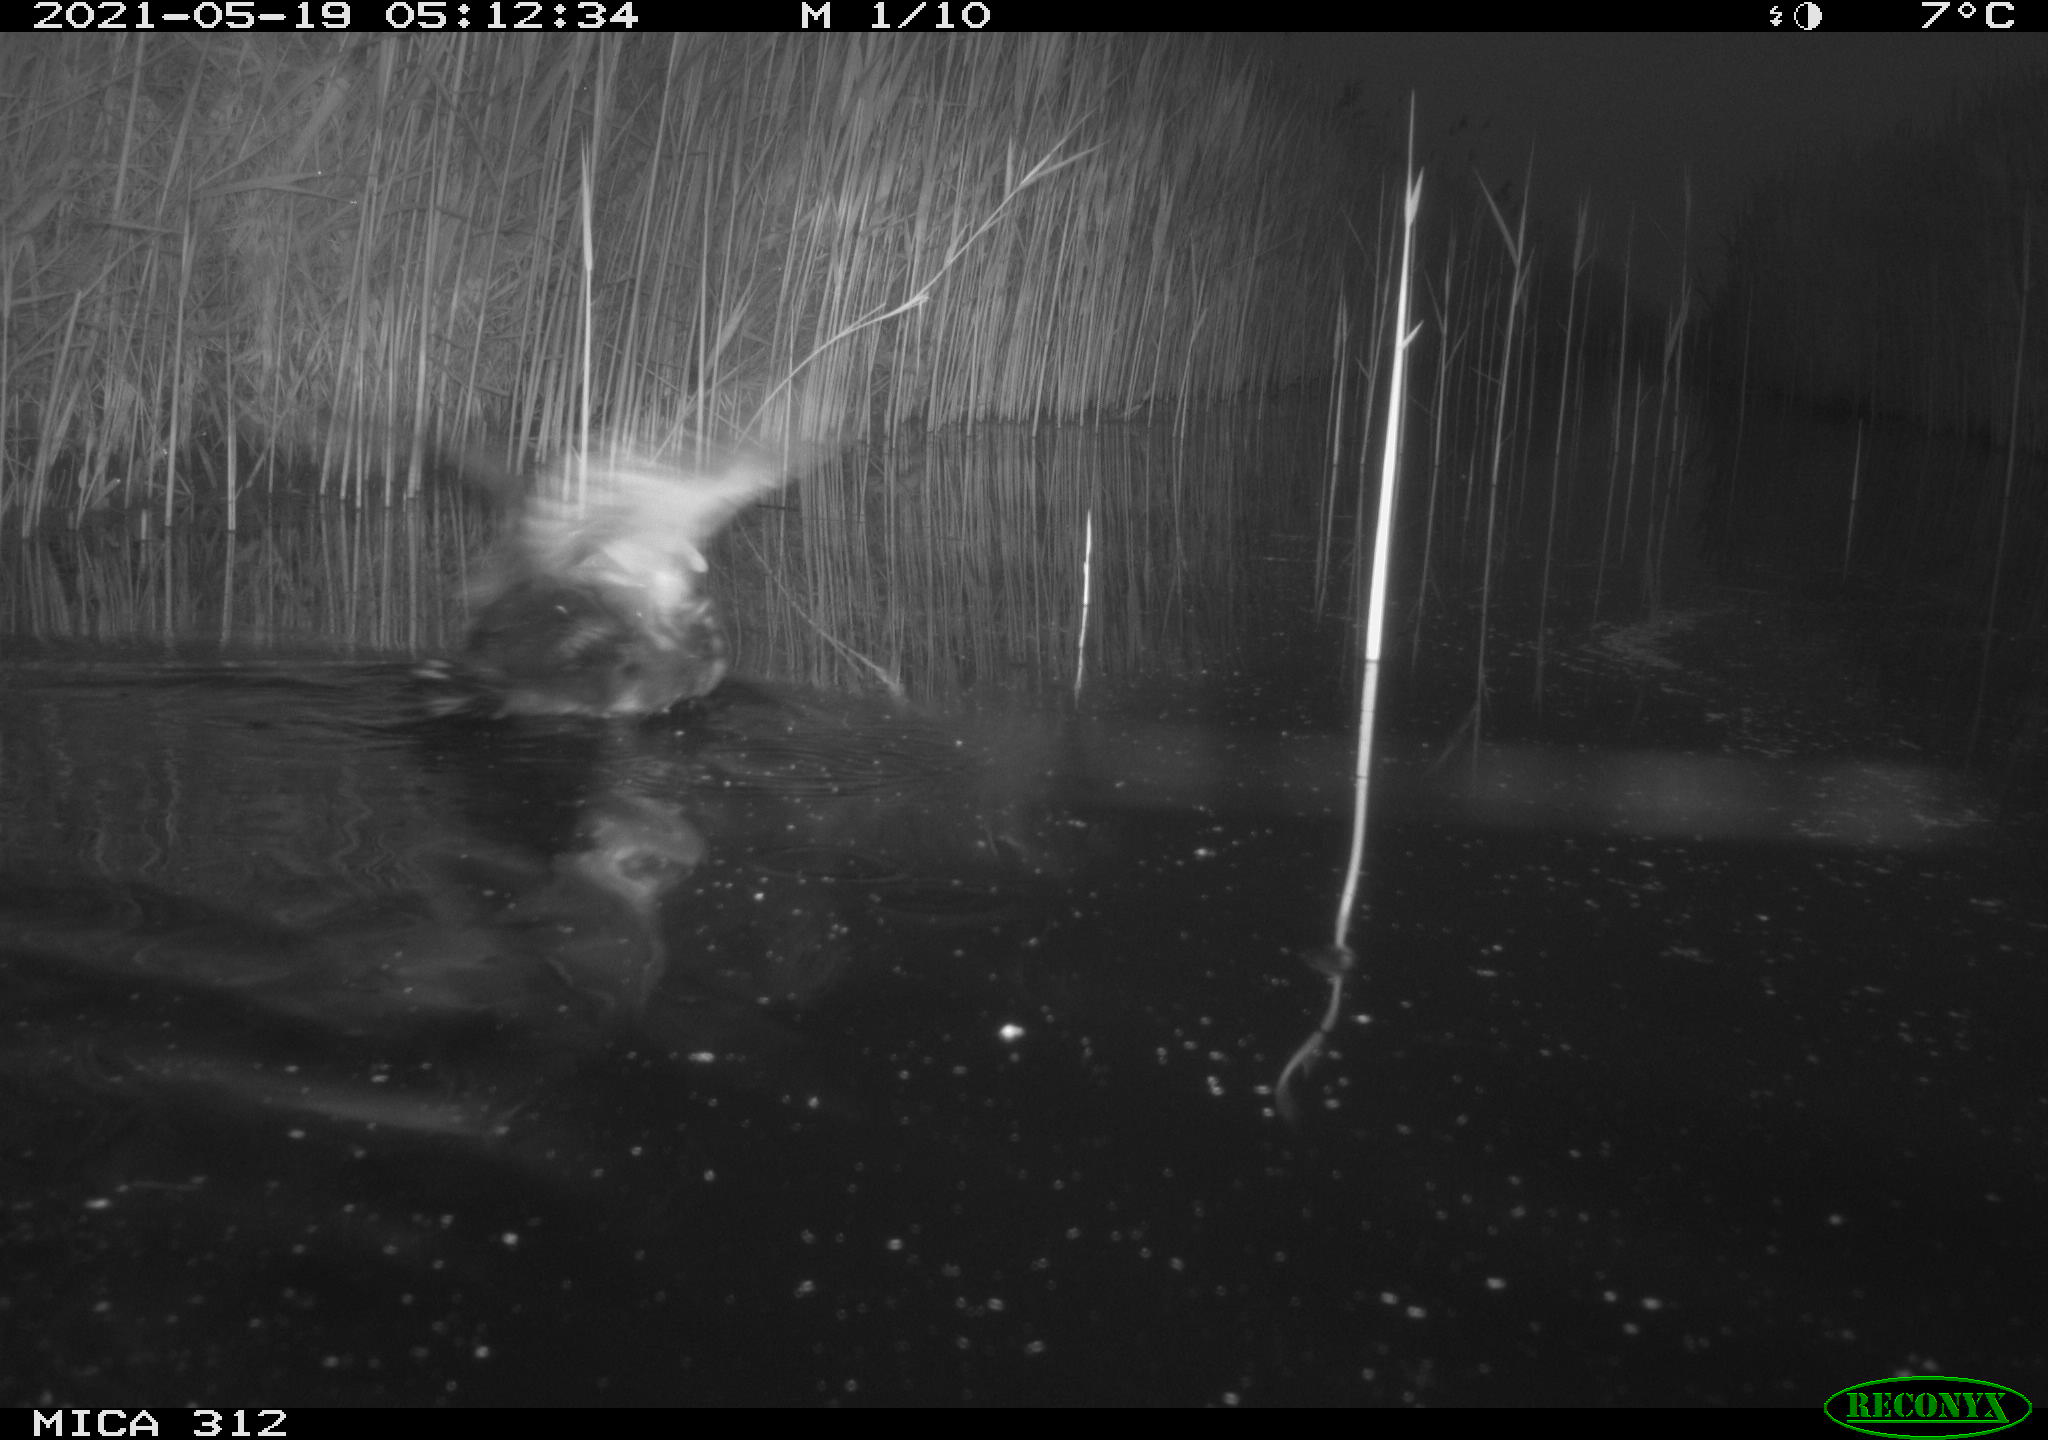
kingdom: Animalia
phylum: Chordata
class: Aves
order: Gruiformes
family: Rallidae
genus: Fulica
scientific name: Fulica atra
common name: Eurasian coot
